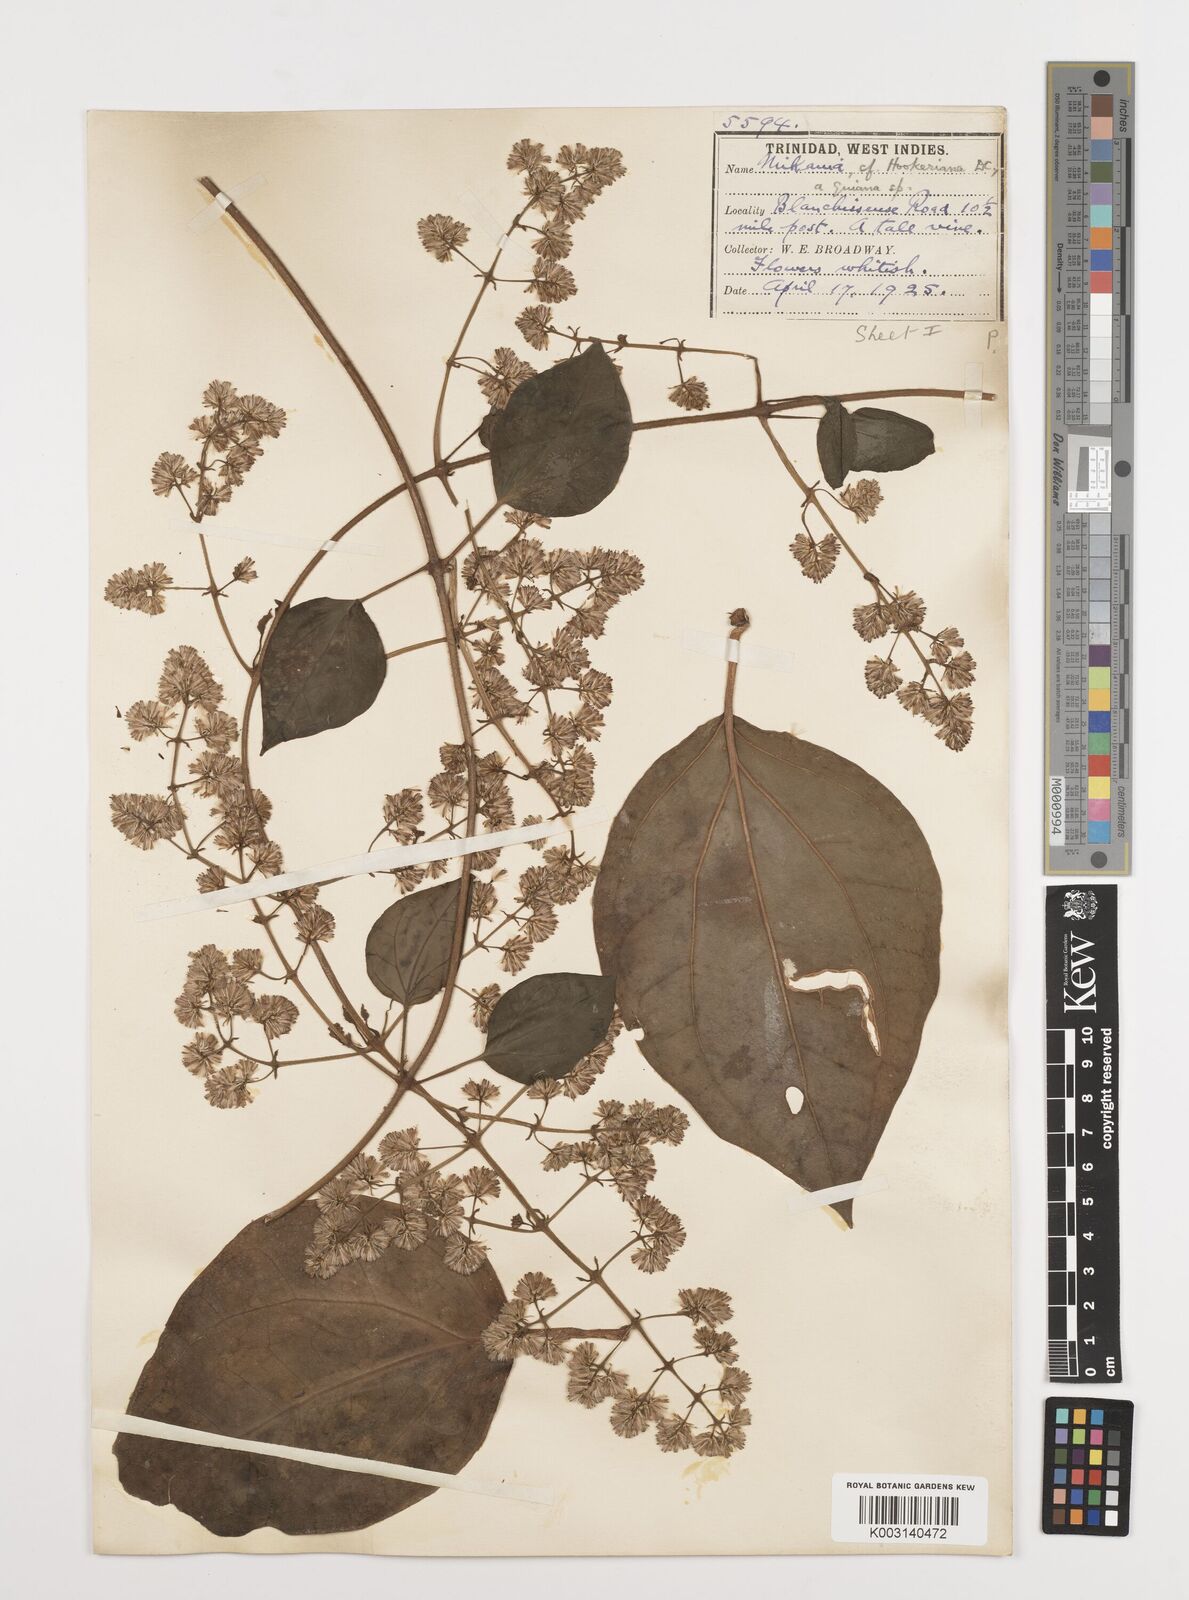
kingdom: Plantae
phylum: Tracheophyta
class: Magnoliopsida
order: Asterales
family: Asteraceae
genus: Mikania
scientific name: Mikania hookeriana
